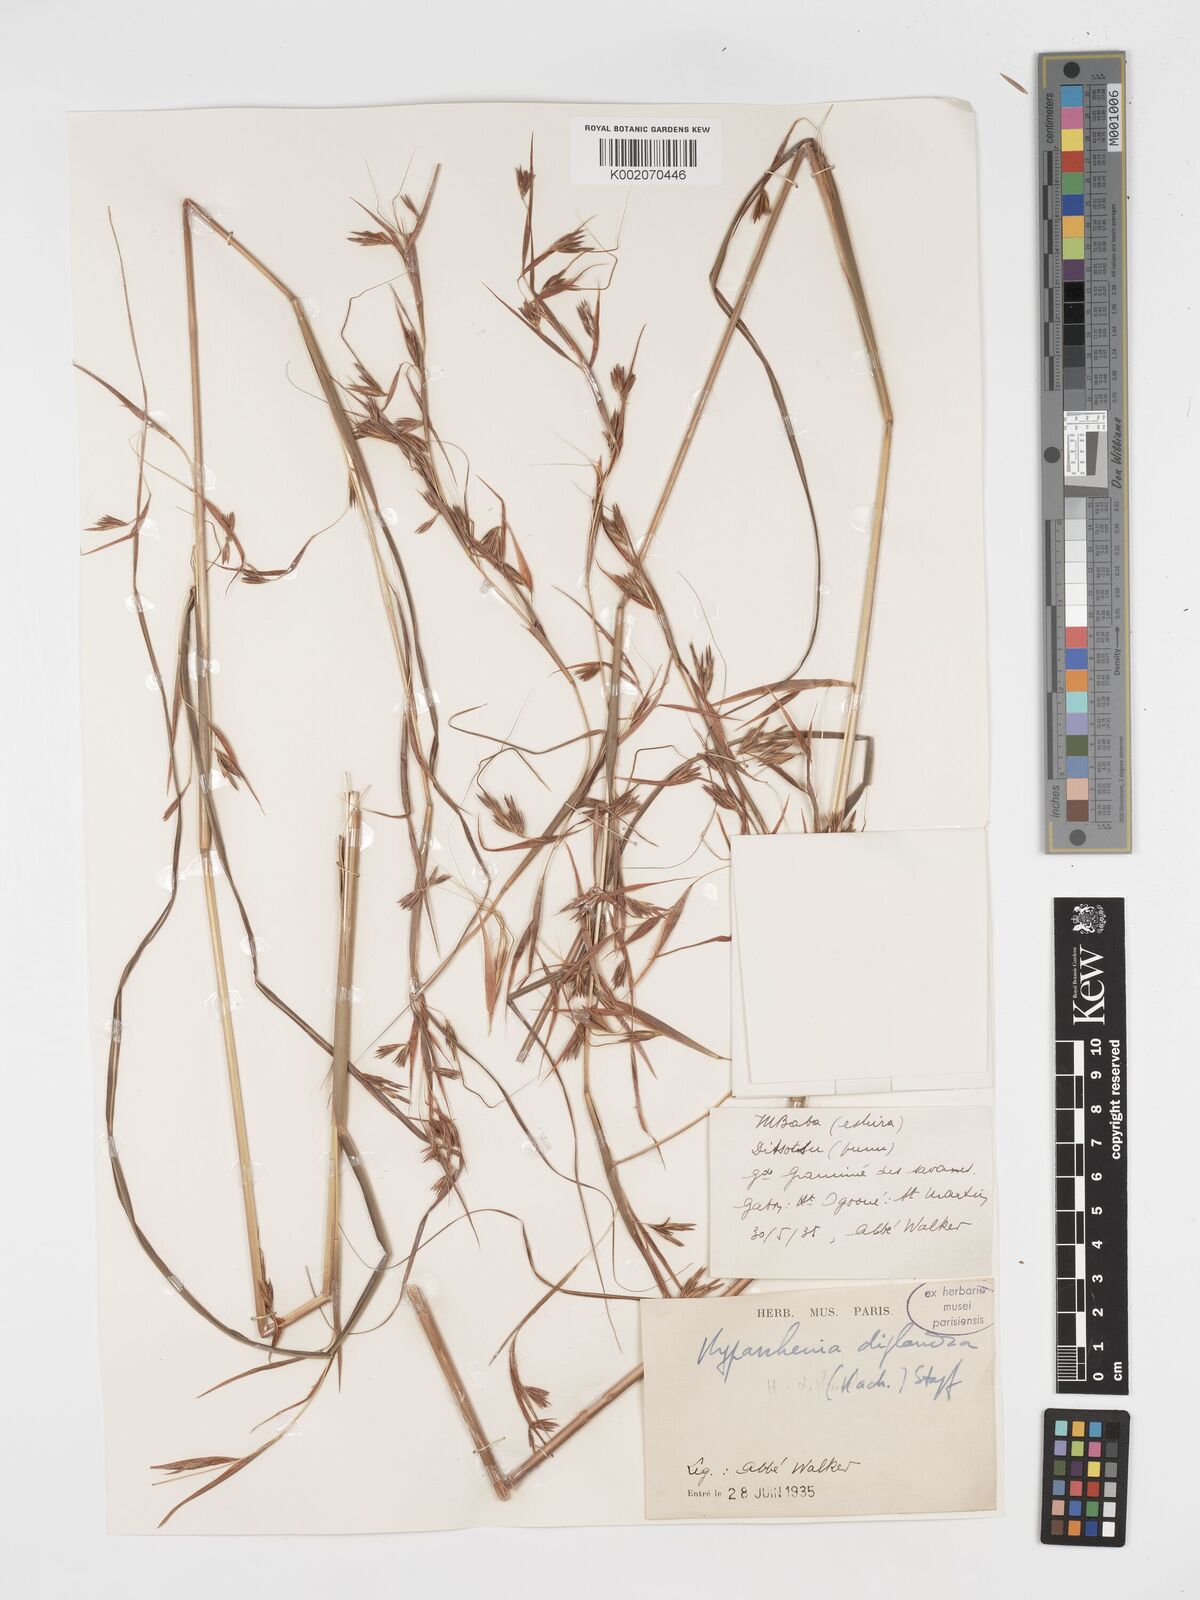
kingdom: Plantae
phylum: Tracheophyta
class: Liliopsida
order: Poales
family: Poaceae
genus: Hyparrhenia
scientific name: Hyparrhenia diplandra
